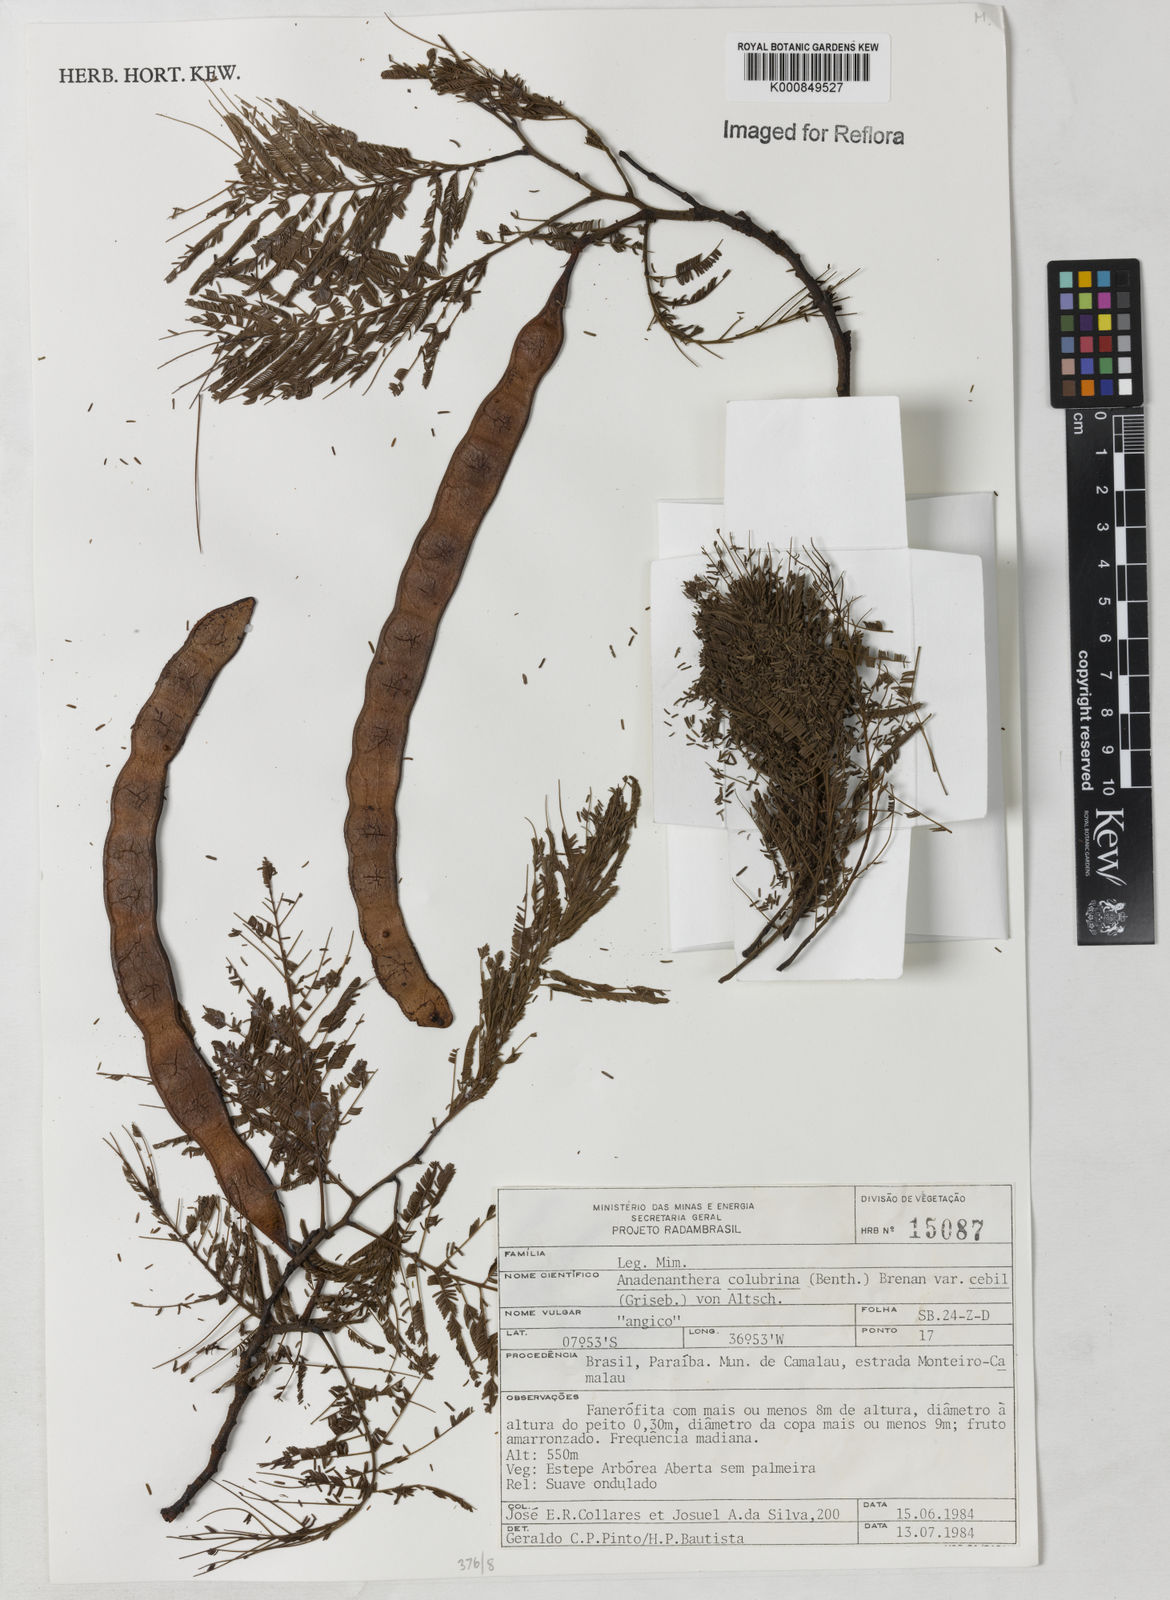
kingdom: Plantae
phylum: Tracheophyta
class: Magnoliopsida
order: Fabales
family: Fabaceae
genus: Anadenanthera
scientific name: Anadenanthera colubrina
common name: Curupay
